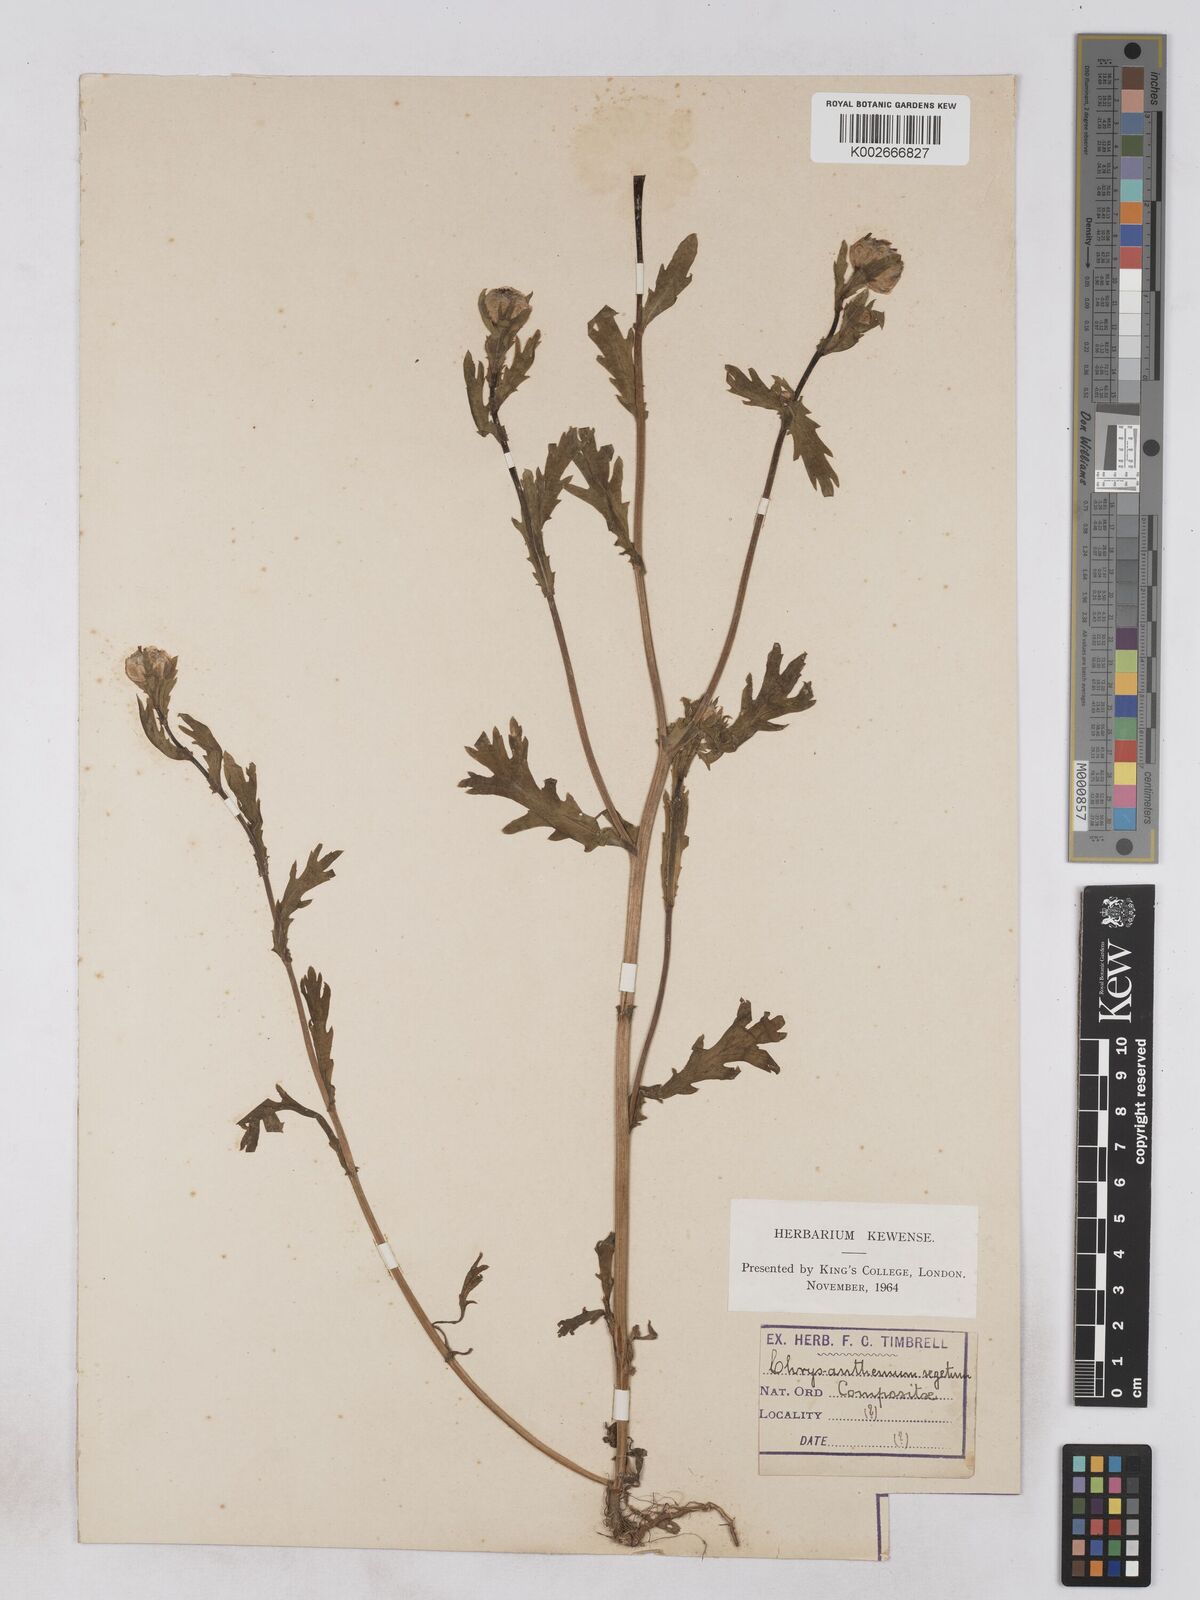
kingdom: Plantae
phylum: Tracheophyta
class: Magnoliopsida
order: Asterales
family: Asteraceae
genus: Glebionis
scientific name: Glebionis segetum
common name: Corndaisy
